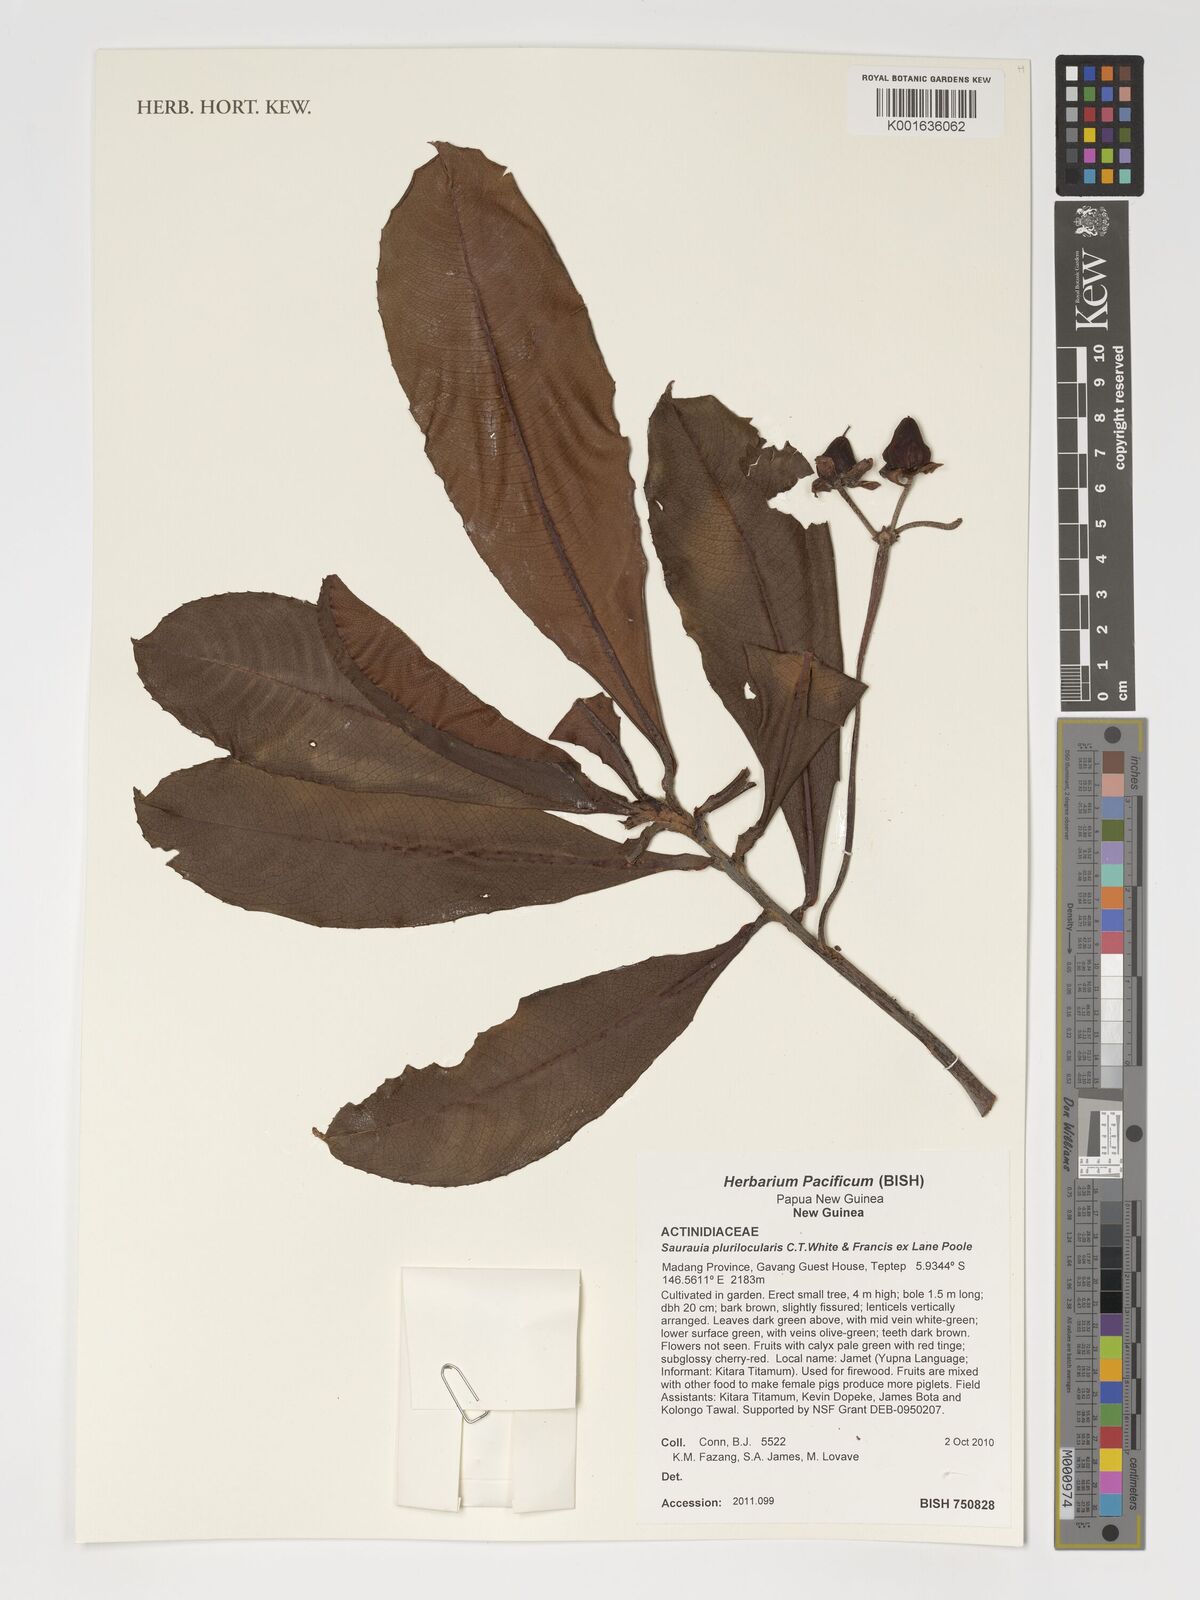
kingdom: Plantae
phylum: Tracheophyta
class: Magnoliopsida
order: Ericales
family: Actinidiaceae
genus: Saurauia
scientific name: Saurauia plurilocularis
